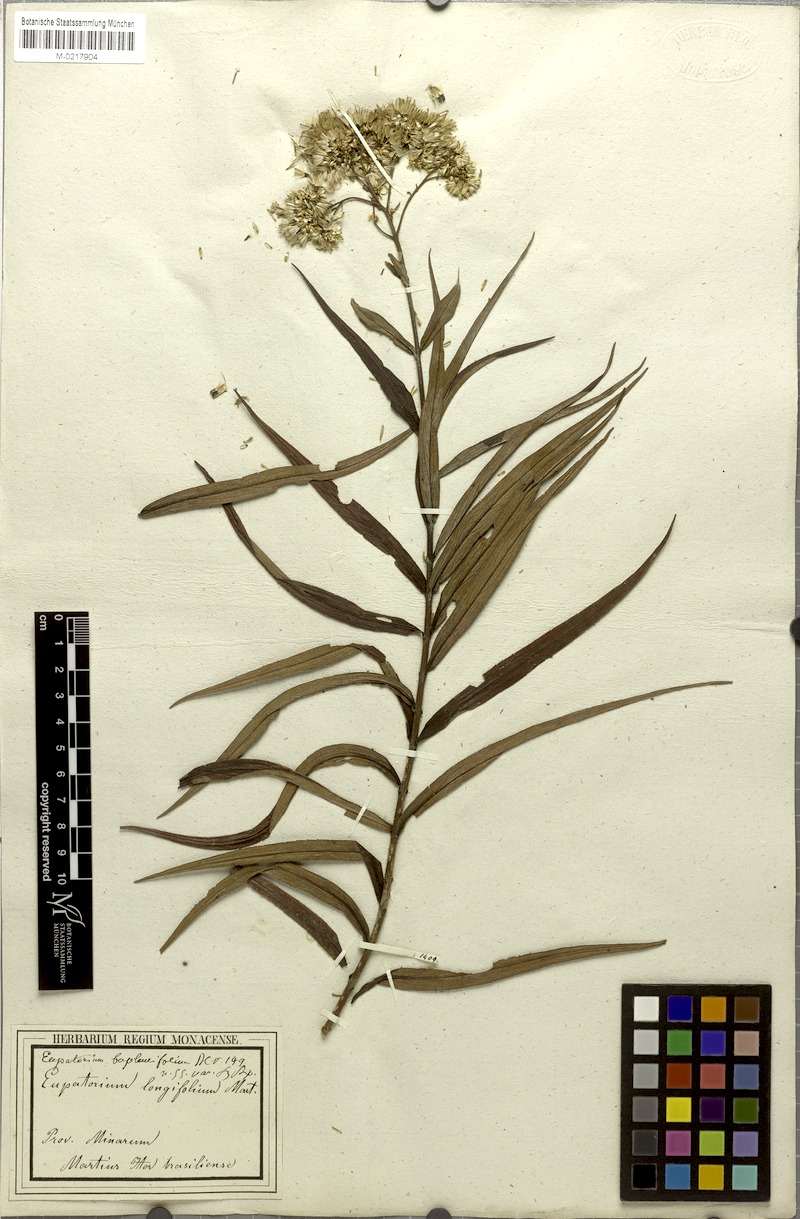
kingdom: Plantae
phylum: Tracheophyta
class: Magnoliopsida
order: Asterales
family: Asteraceae
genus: Campovassouria
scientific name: Campovassouria cruciata
